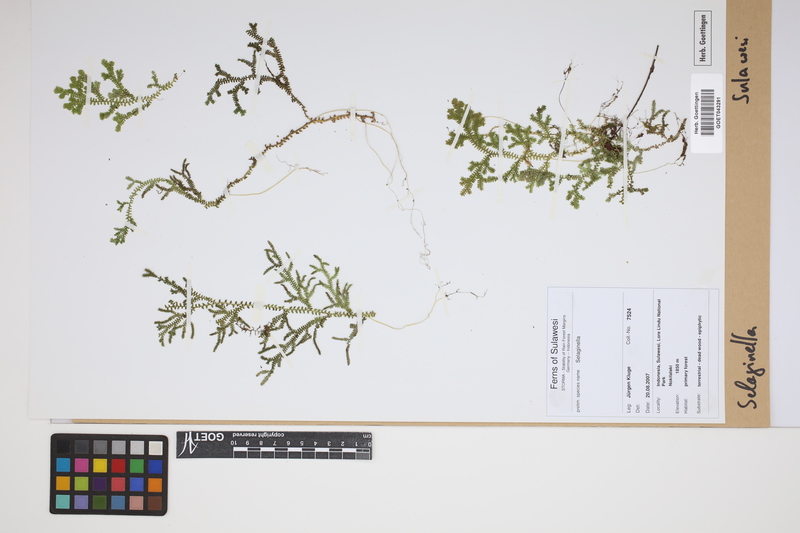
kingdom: Plantae
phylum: Tracheophyta
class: Lycopodiopsida
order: Selaginellales
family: Selaginellaceae
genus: Selaginella
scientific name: Selaginella
